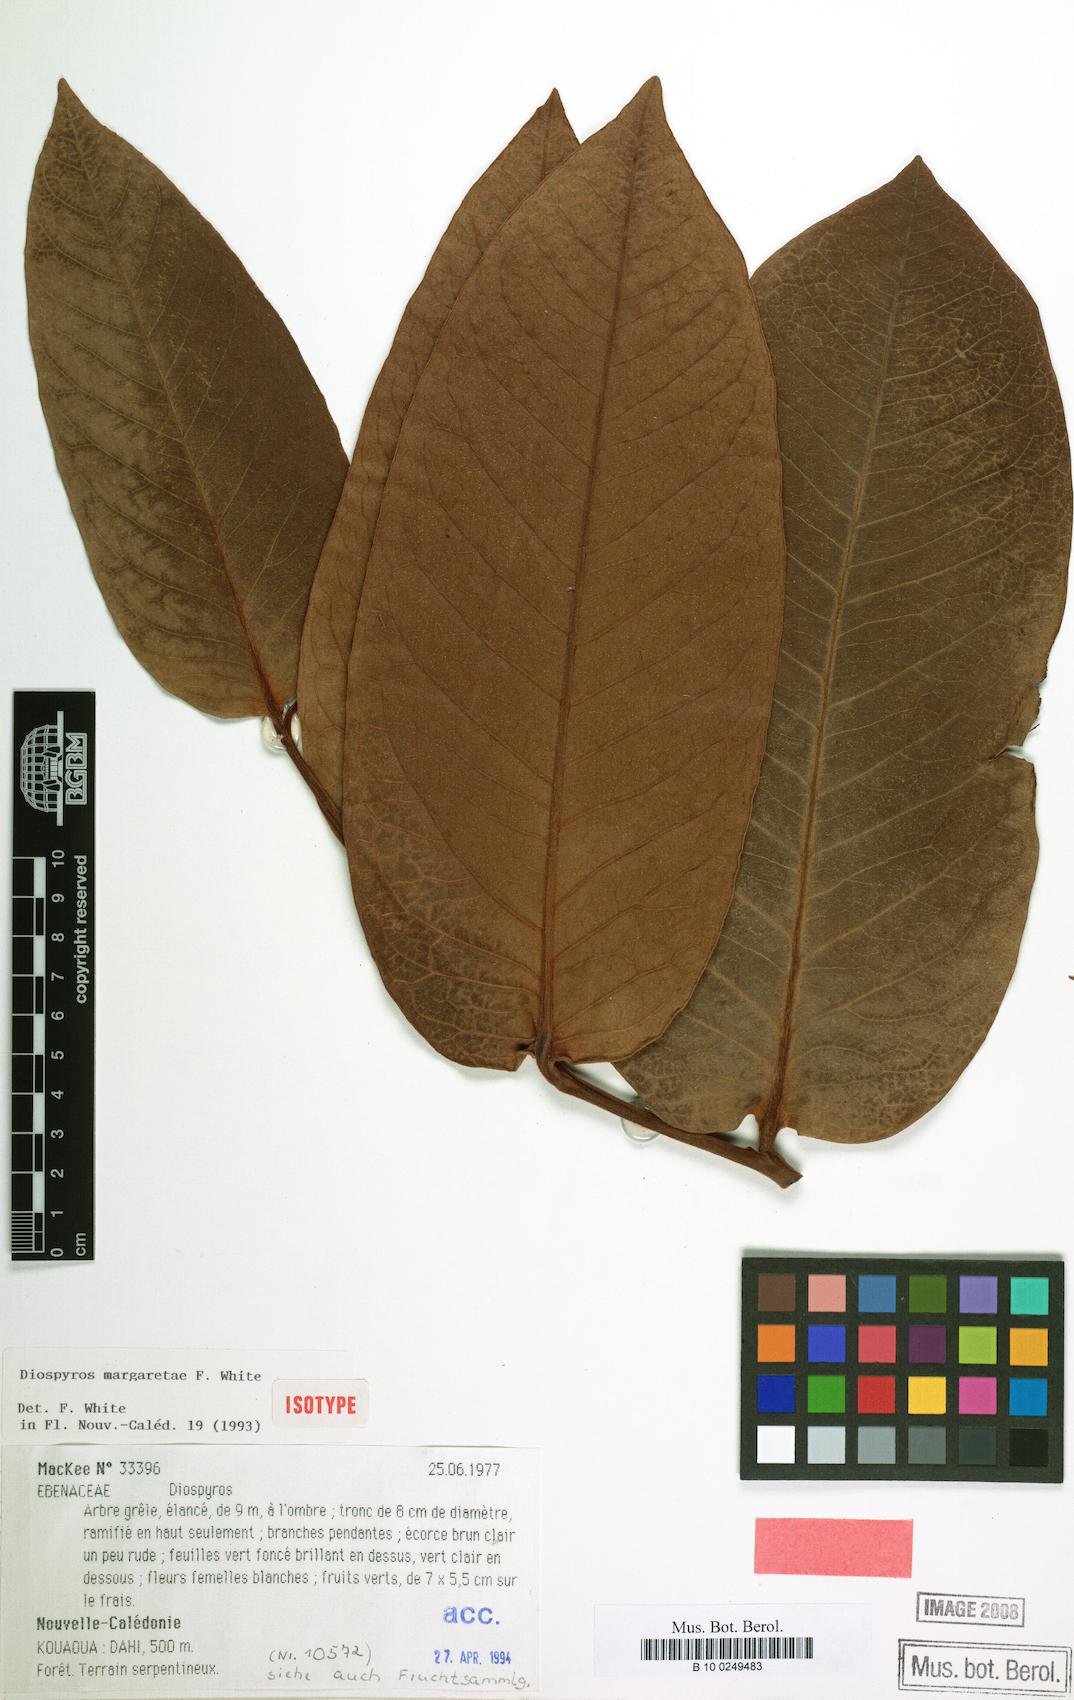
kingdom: Plantae
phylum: Tracheophyta
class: Magnoliopsida
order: Ericales
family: Ebenaceae
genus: Diospyros
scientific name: Diospyros margaretae
